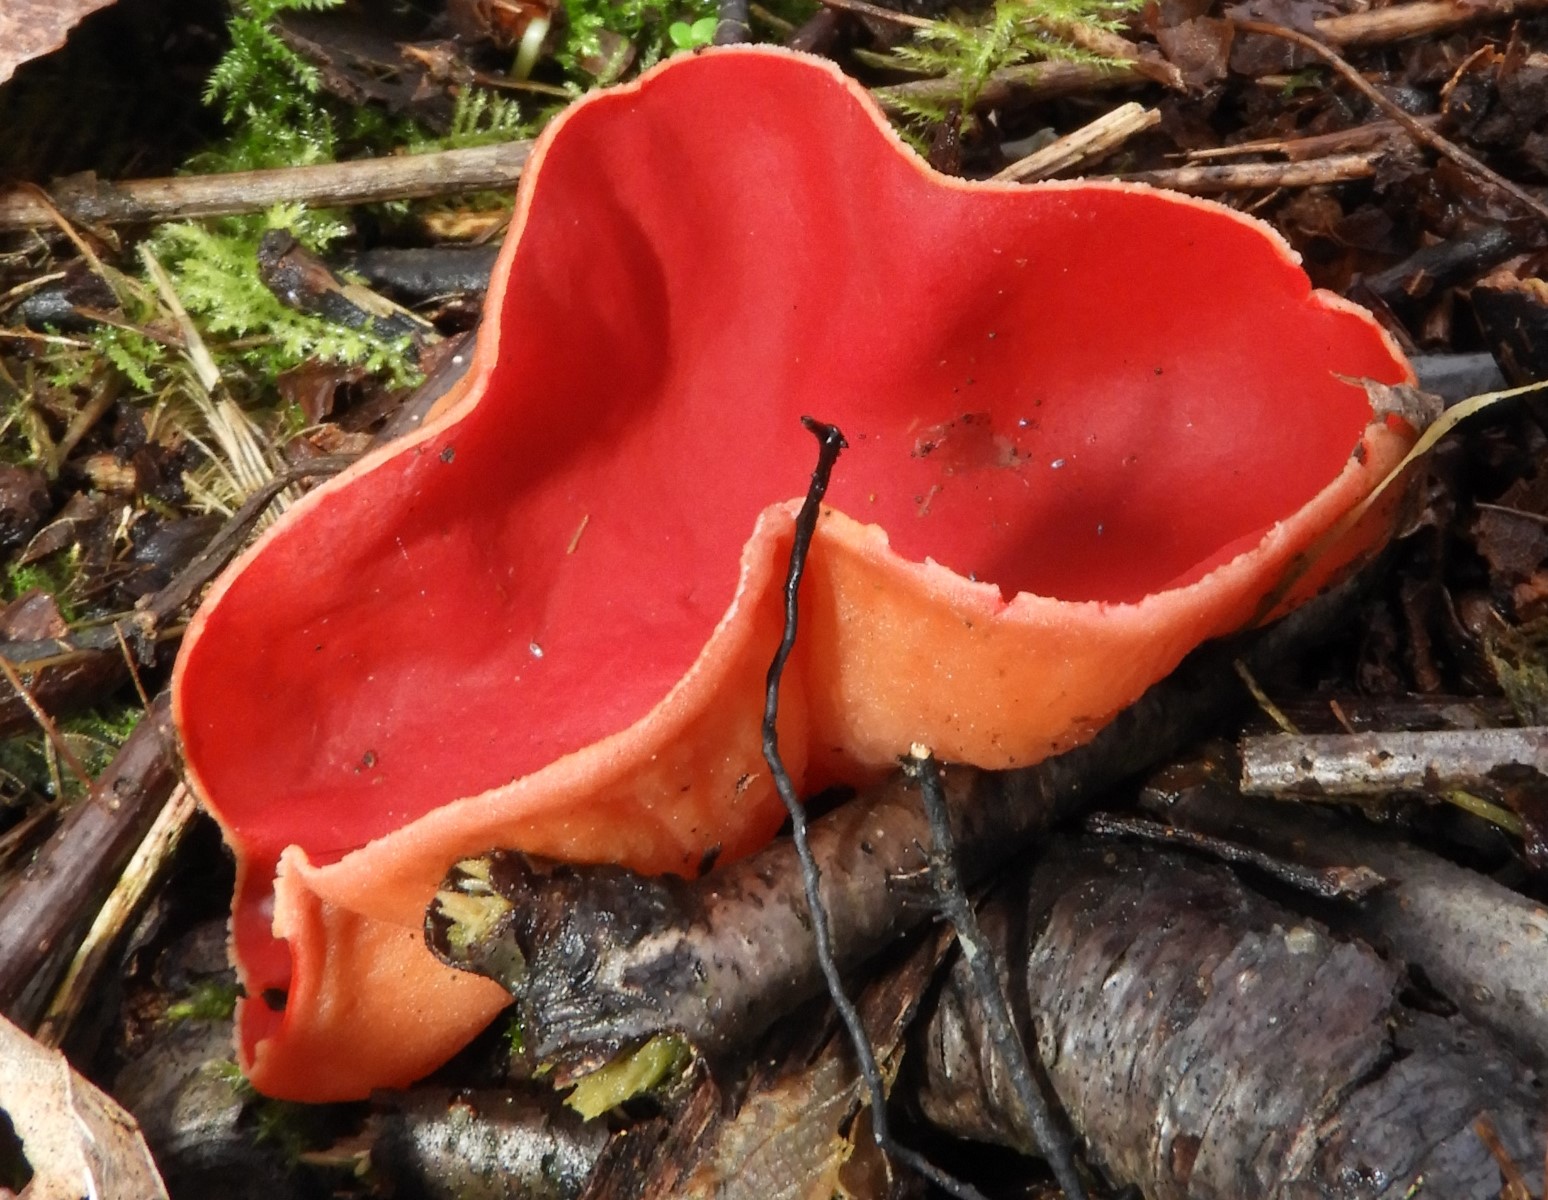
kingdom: Fungi
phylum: Ascomycota
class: Pezizomycetes
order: Pezizales
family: Sarcoscyphaceae
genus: Sarcoscypha
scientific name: Sarcoscypha austriaca
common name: krølhåret pragtbæger
